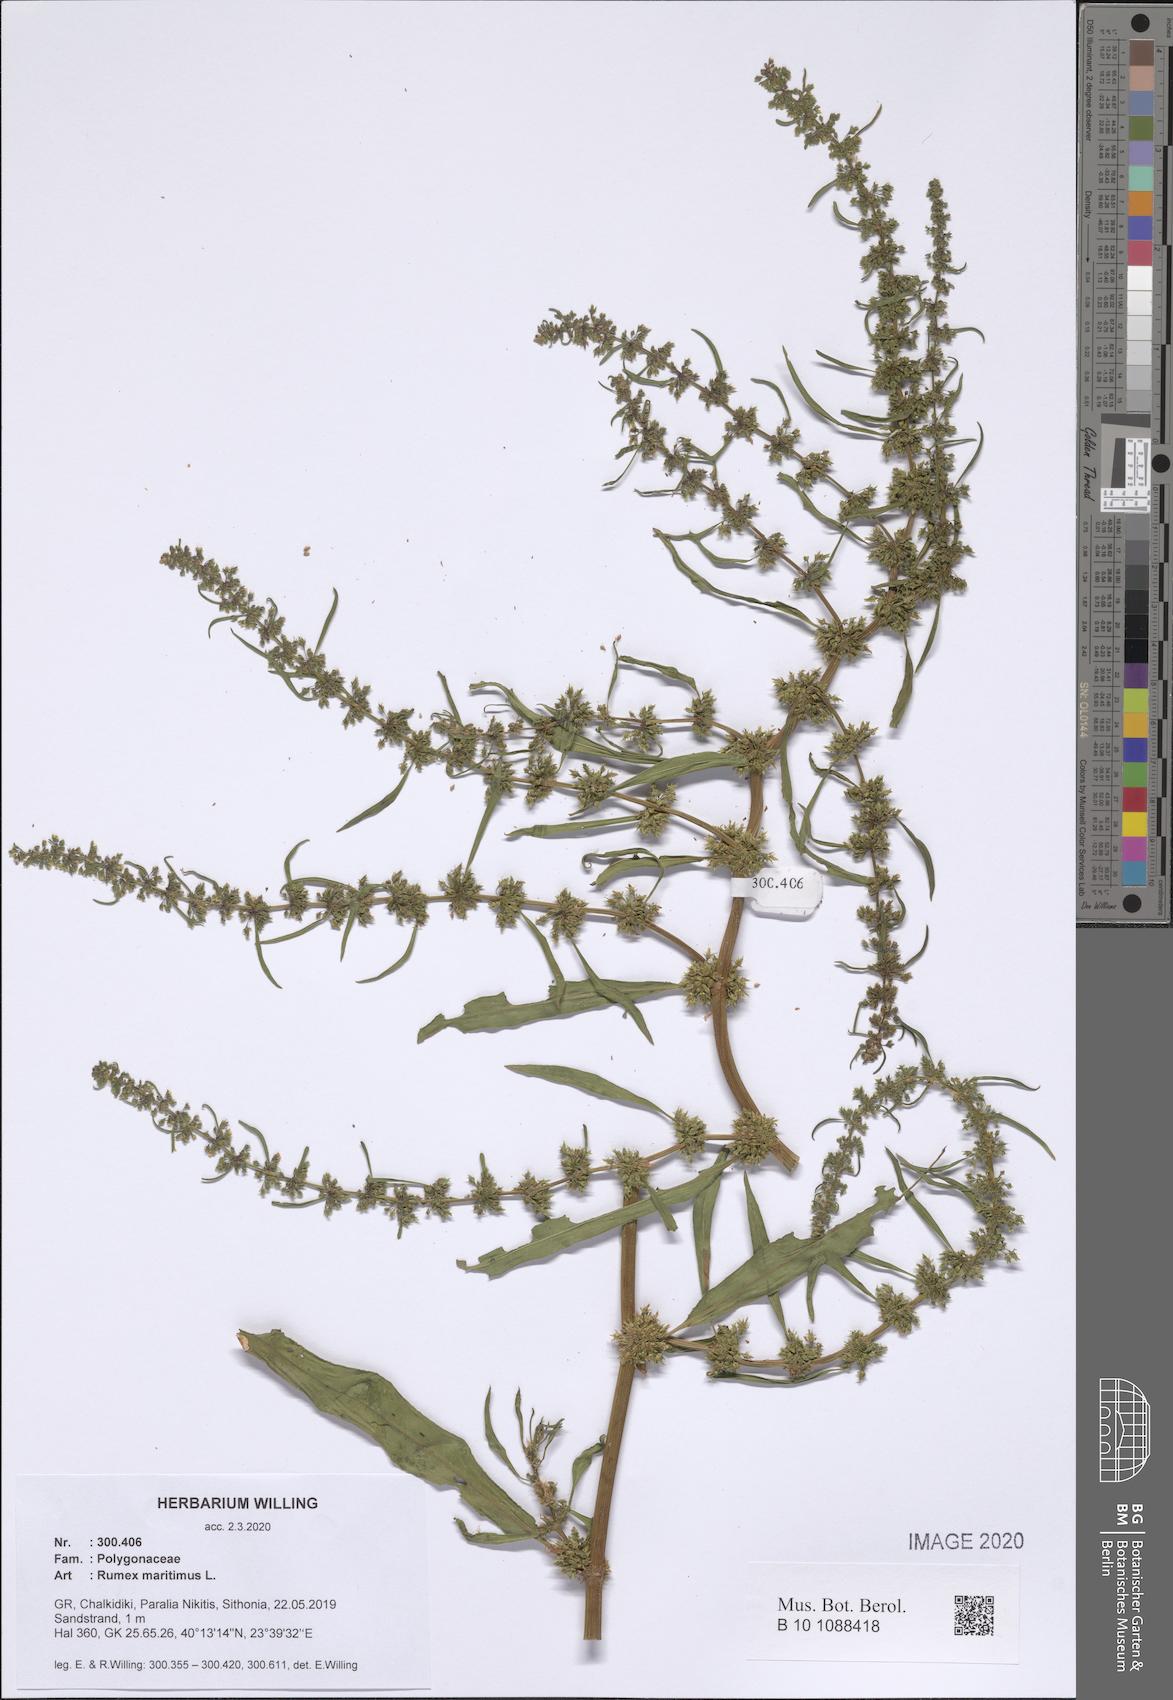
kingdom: Plantae
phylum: Tracheophyta
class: Magnoliopsida
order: Caryophyllales
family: Polygonaceae
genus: Rumex
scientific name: Rumex maritimus
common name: Golden dock
